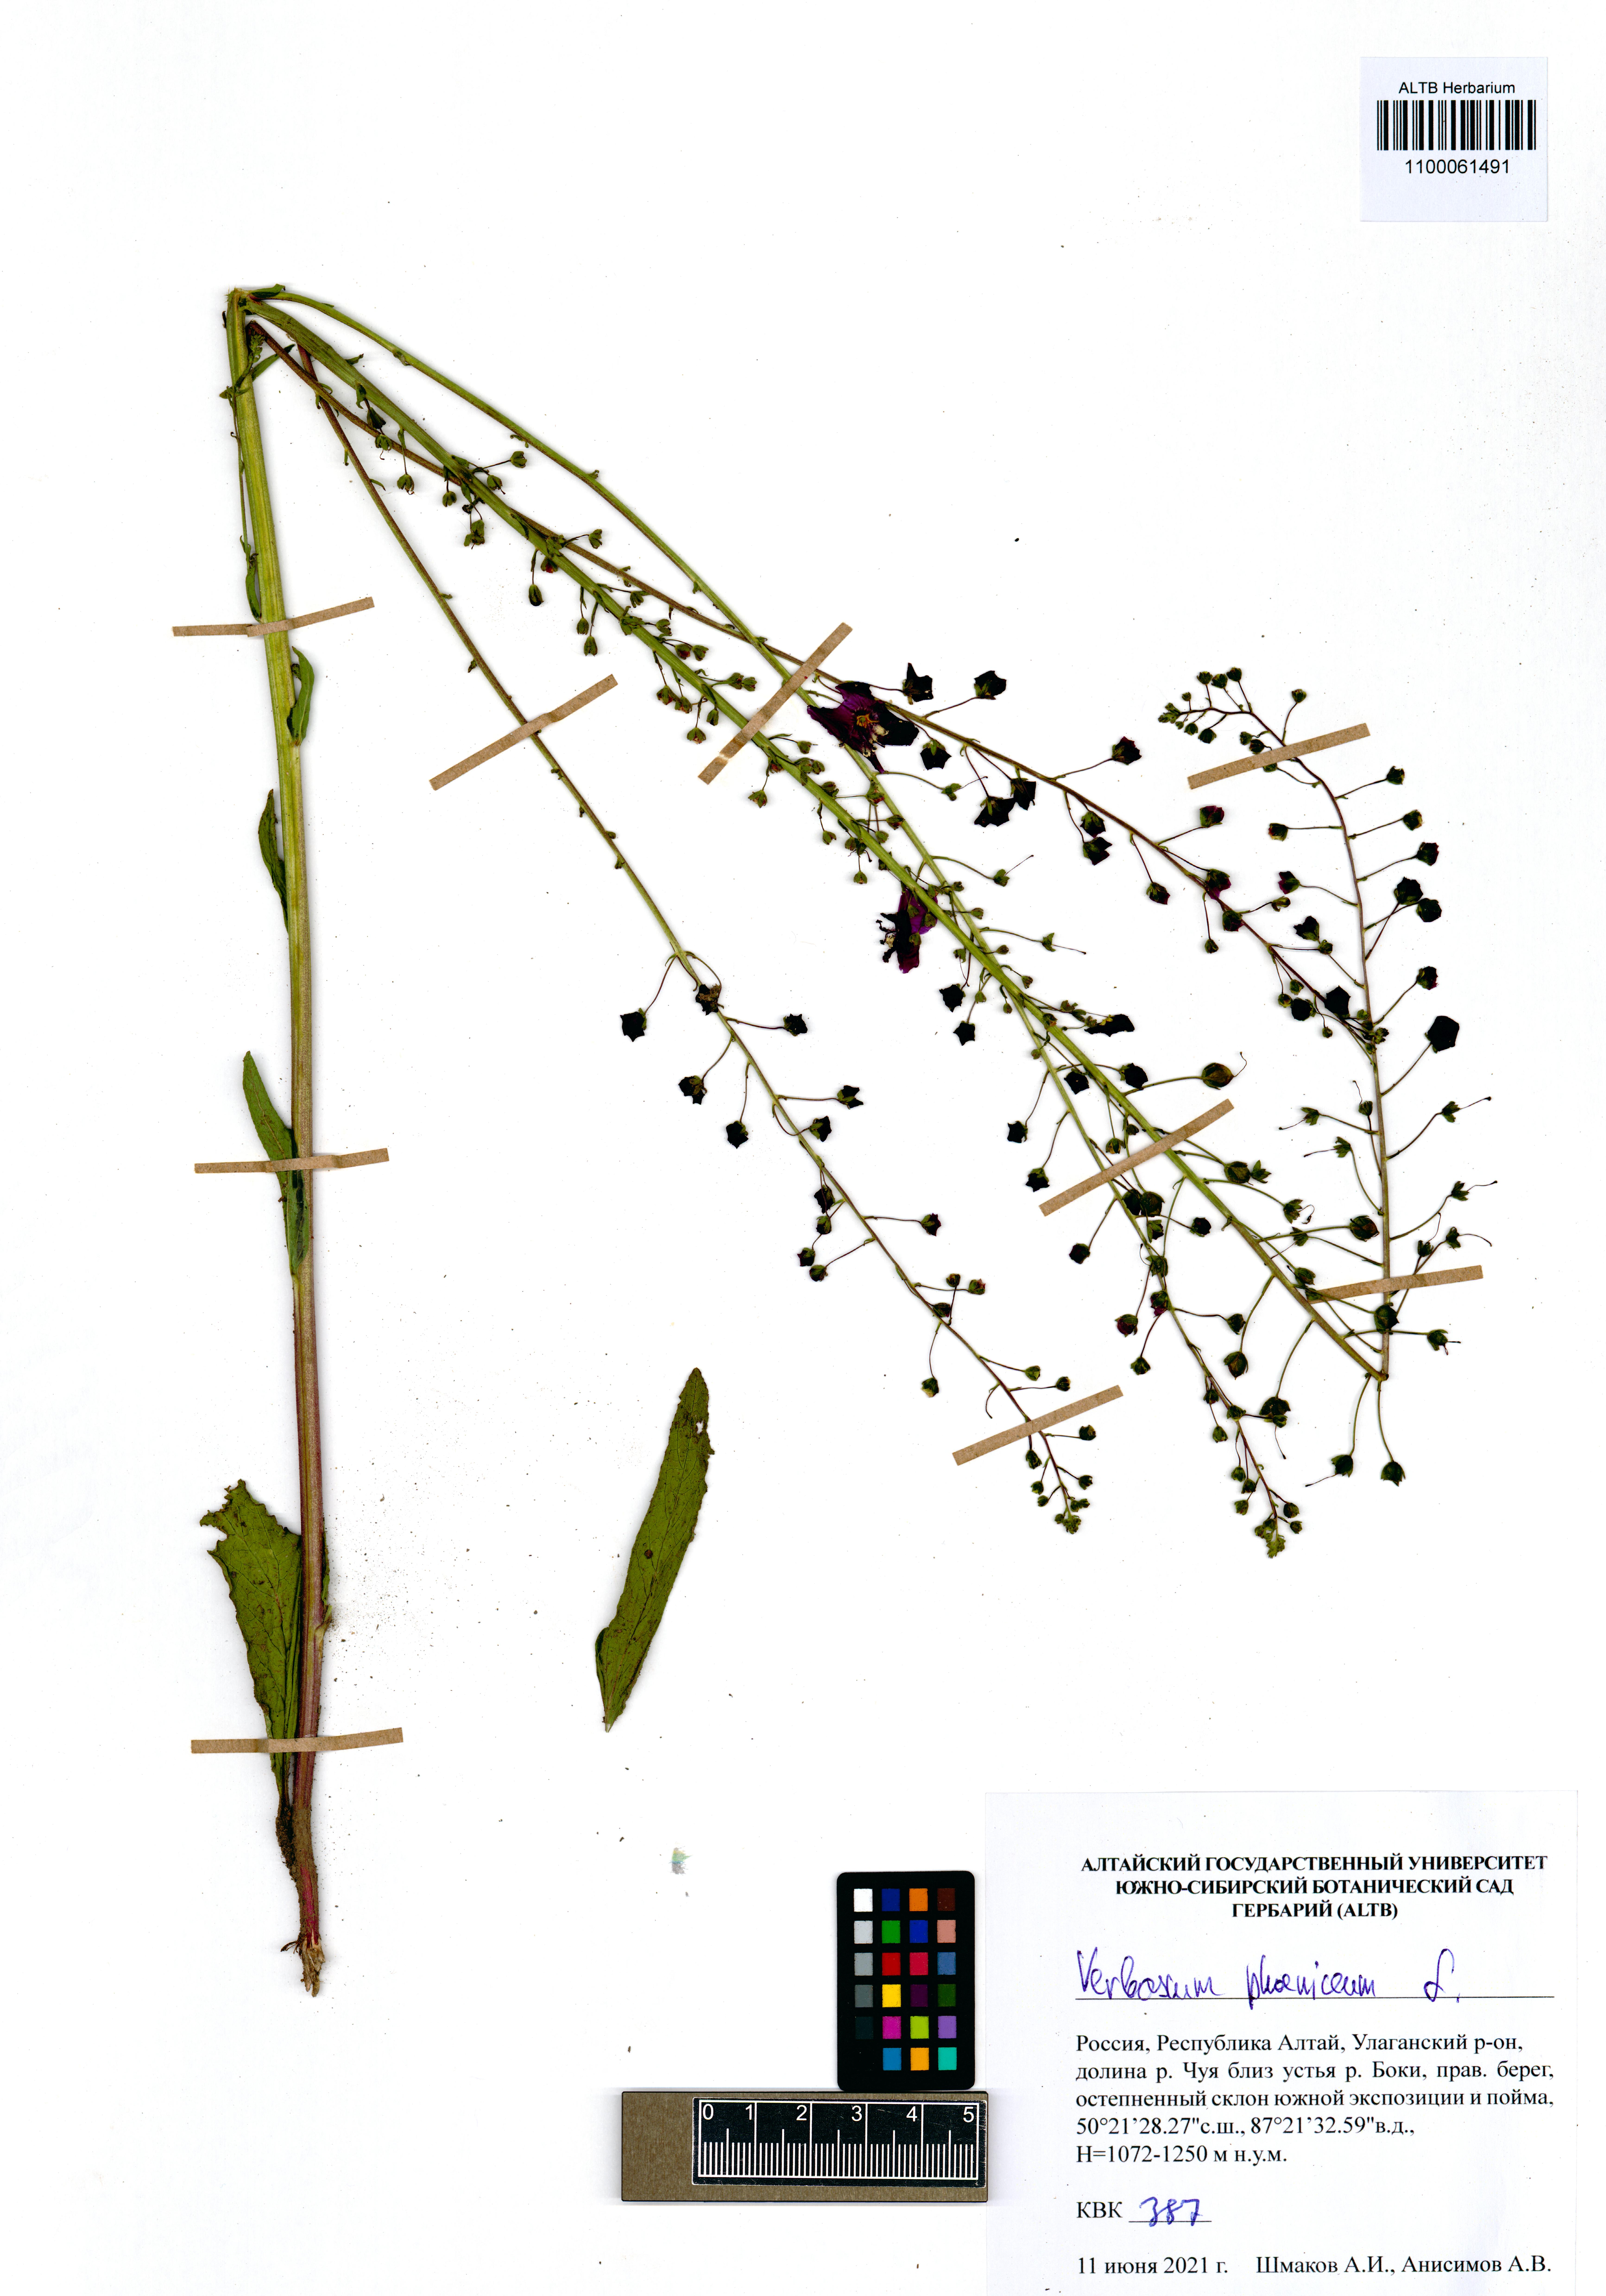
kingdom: Plantae
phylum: Tracheophyta
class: Magnoliopsida
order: Lamiales
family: Scrophulariaceae
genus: Verbascum
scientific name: Verbascum phoeniceum
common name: Purple mullein
